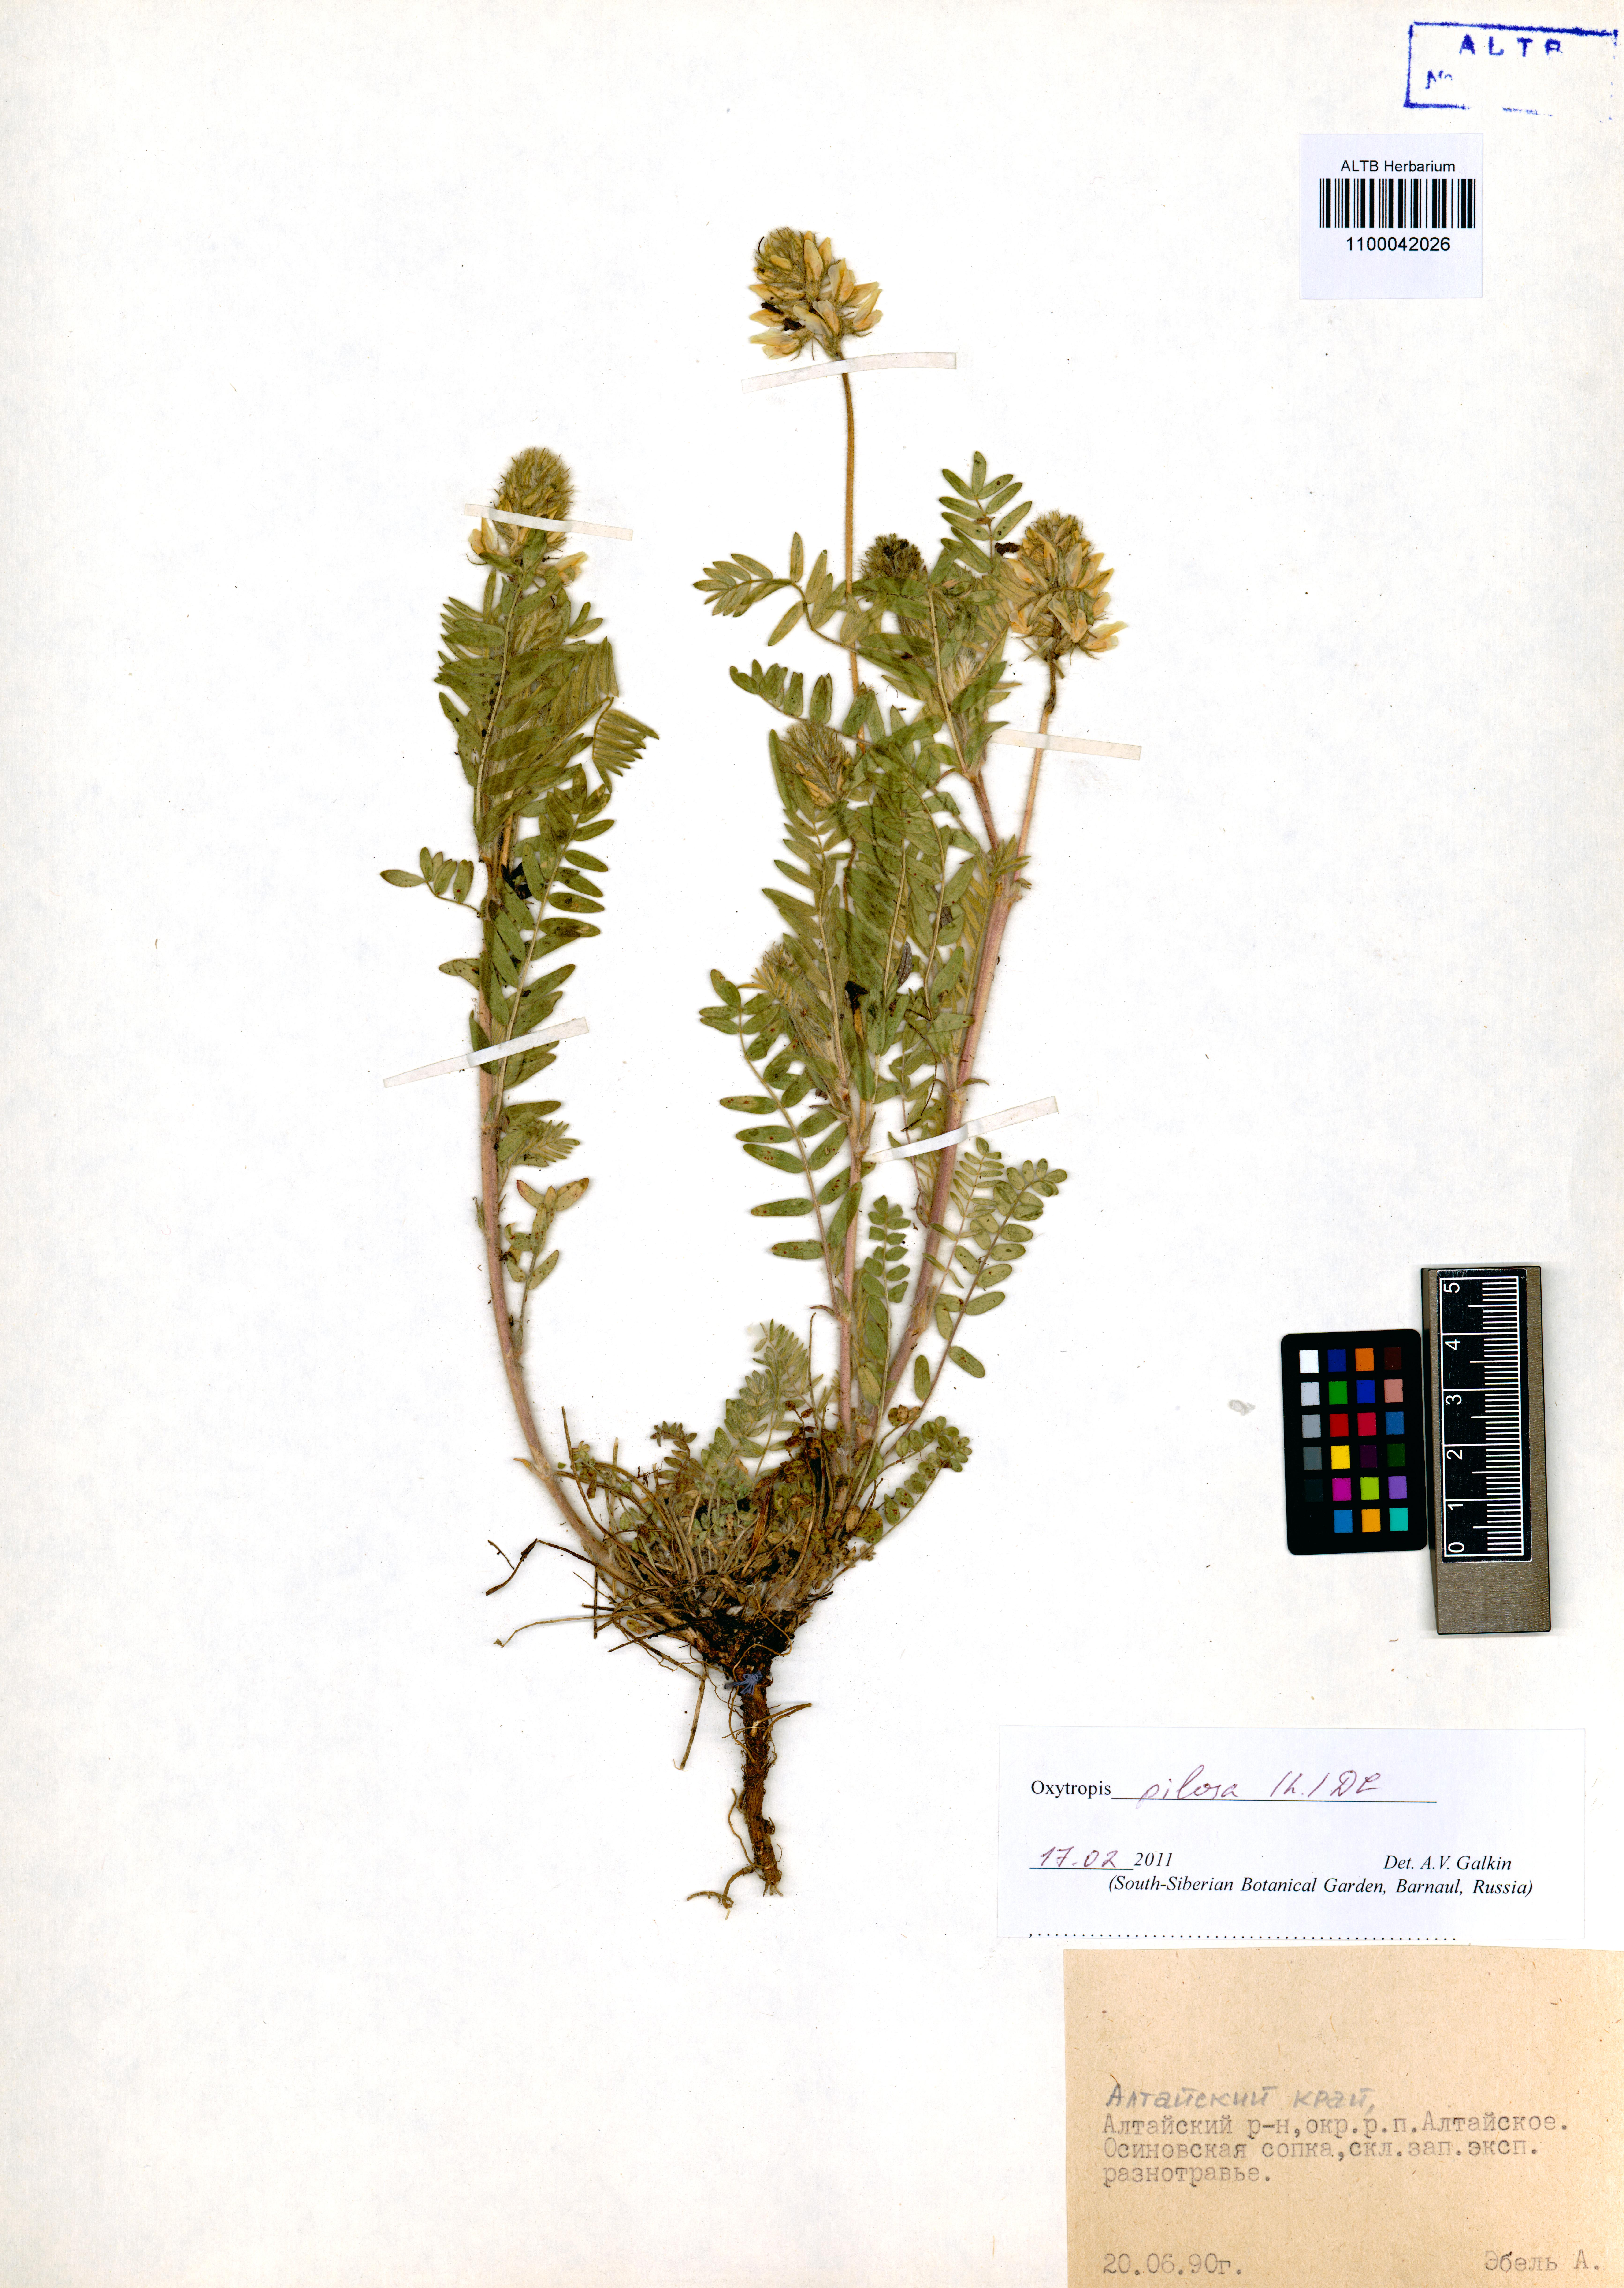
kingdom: Plantae
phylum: Tracheophyta
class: Magnoliopsida
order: Fabales
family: Fabaceae
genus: Oxytropis
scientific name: Oxytropis pilosa
